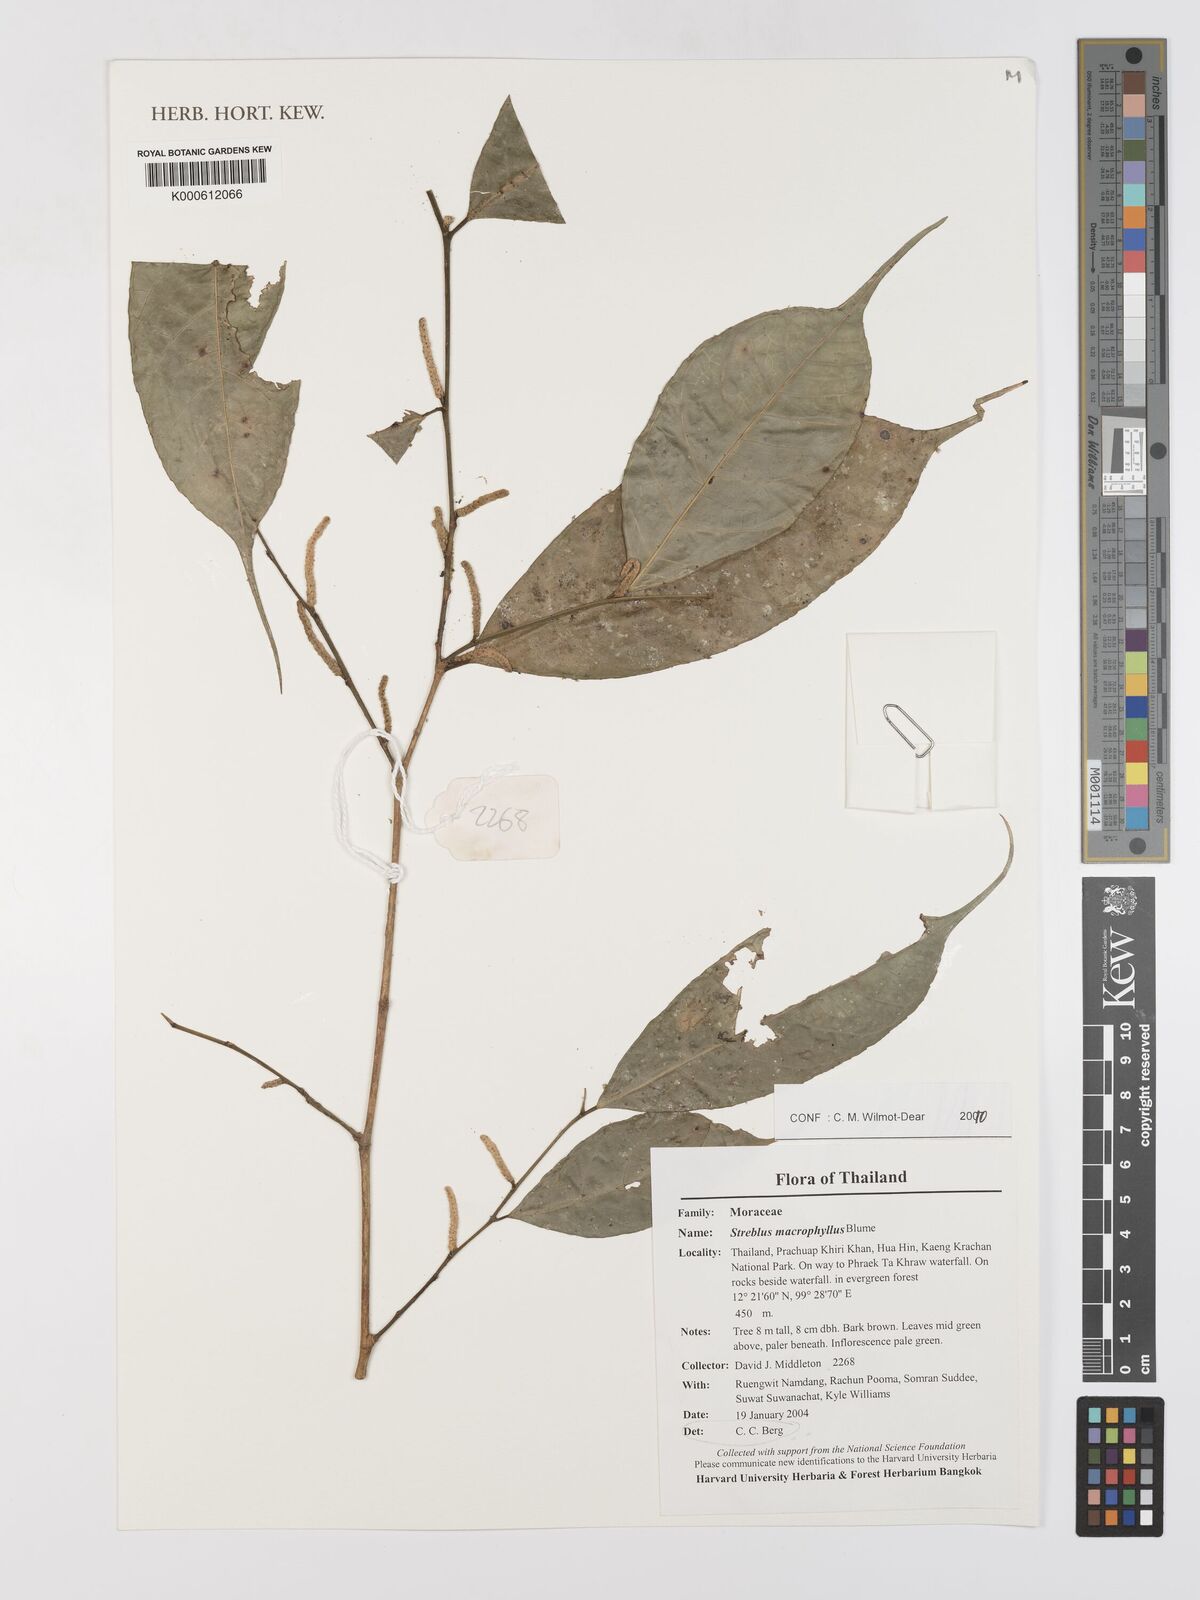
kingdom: Plantae
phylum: Tracheophyta
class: Magnoliopsida
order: Rosales
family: Moraceae
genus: Taxotrophis
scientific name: Taxotrophis macrophylla
